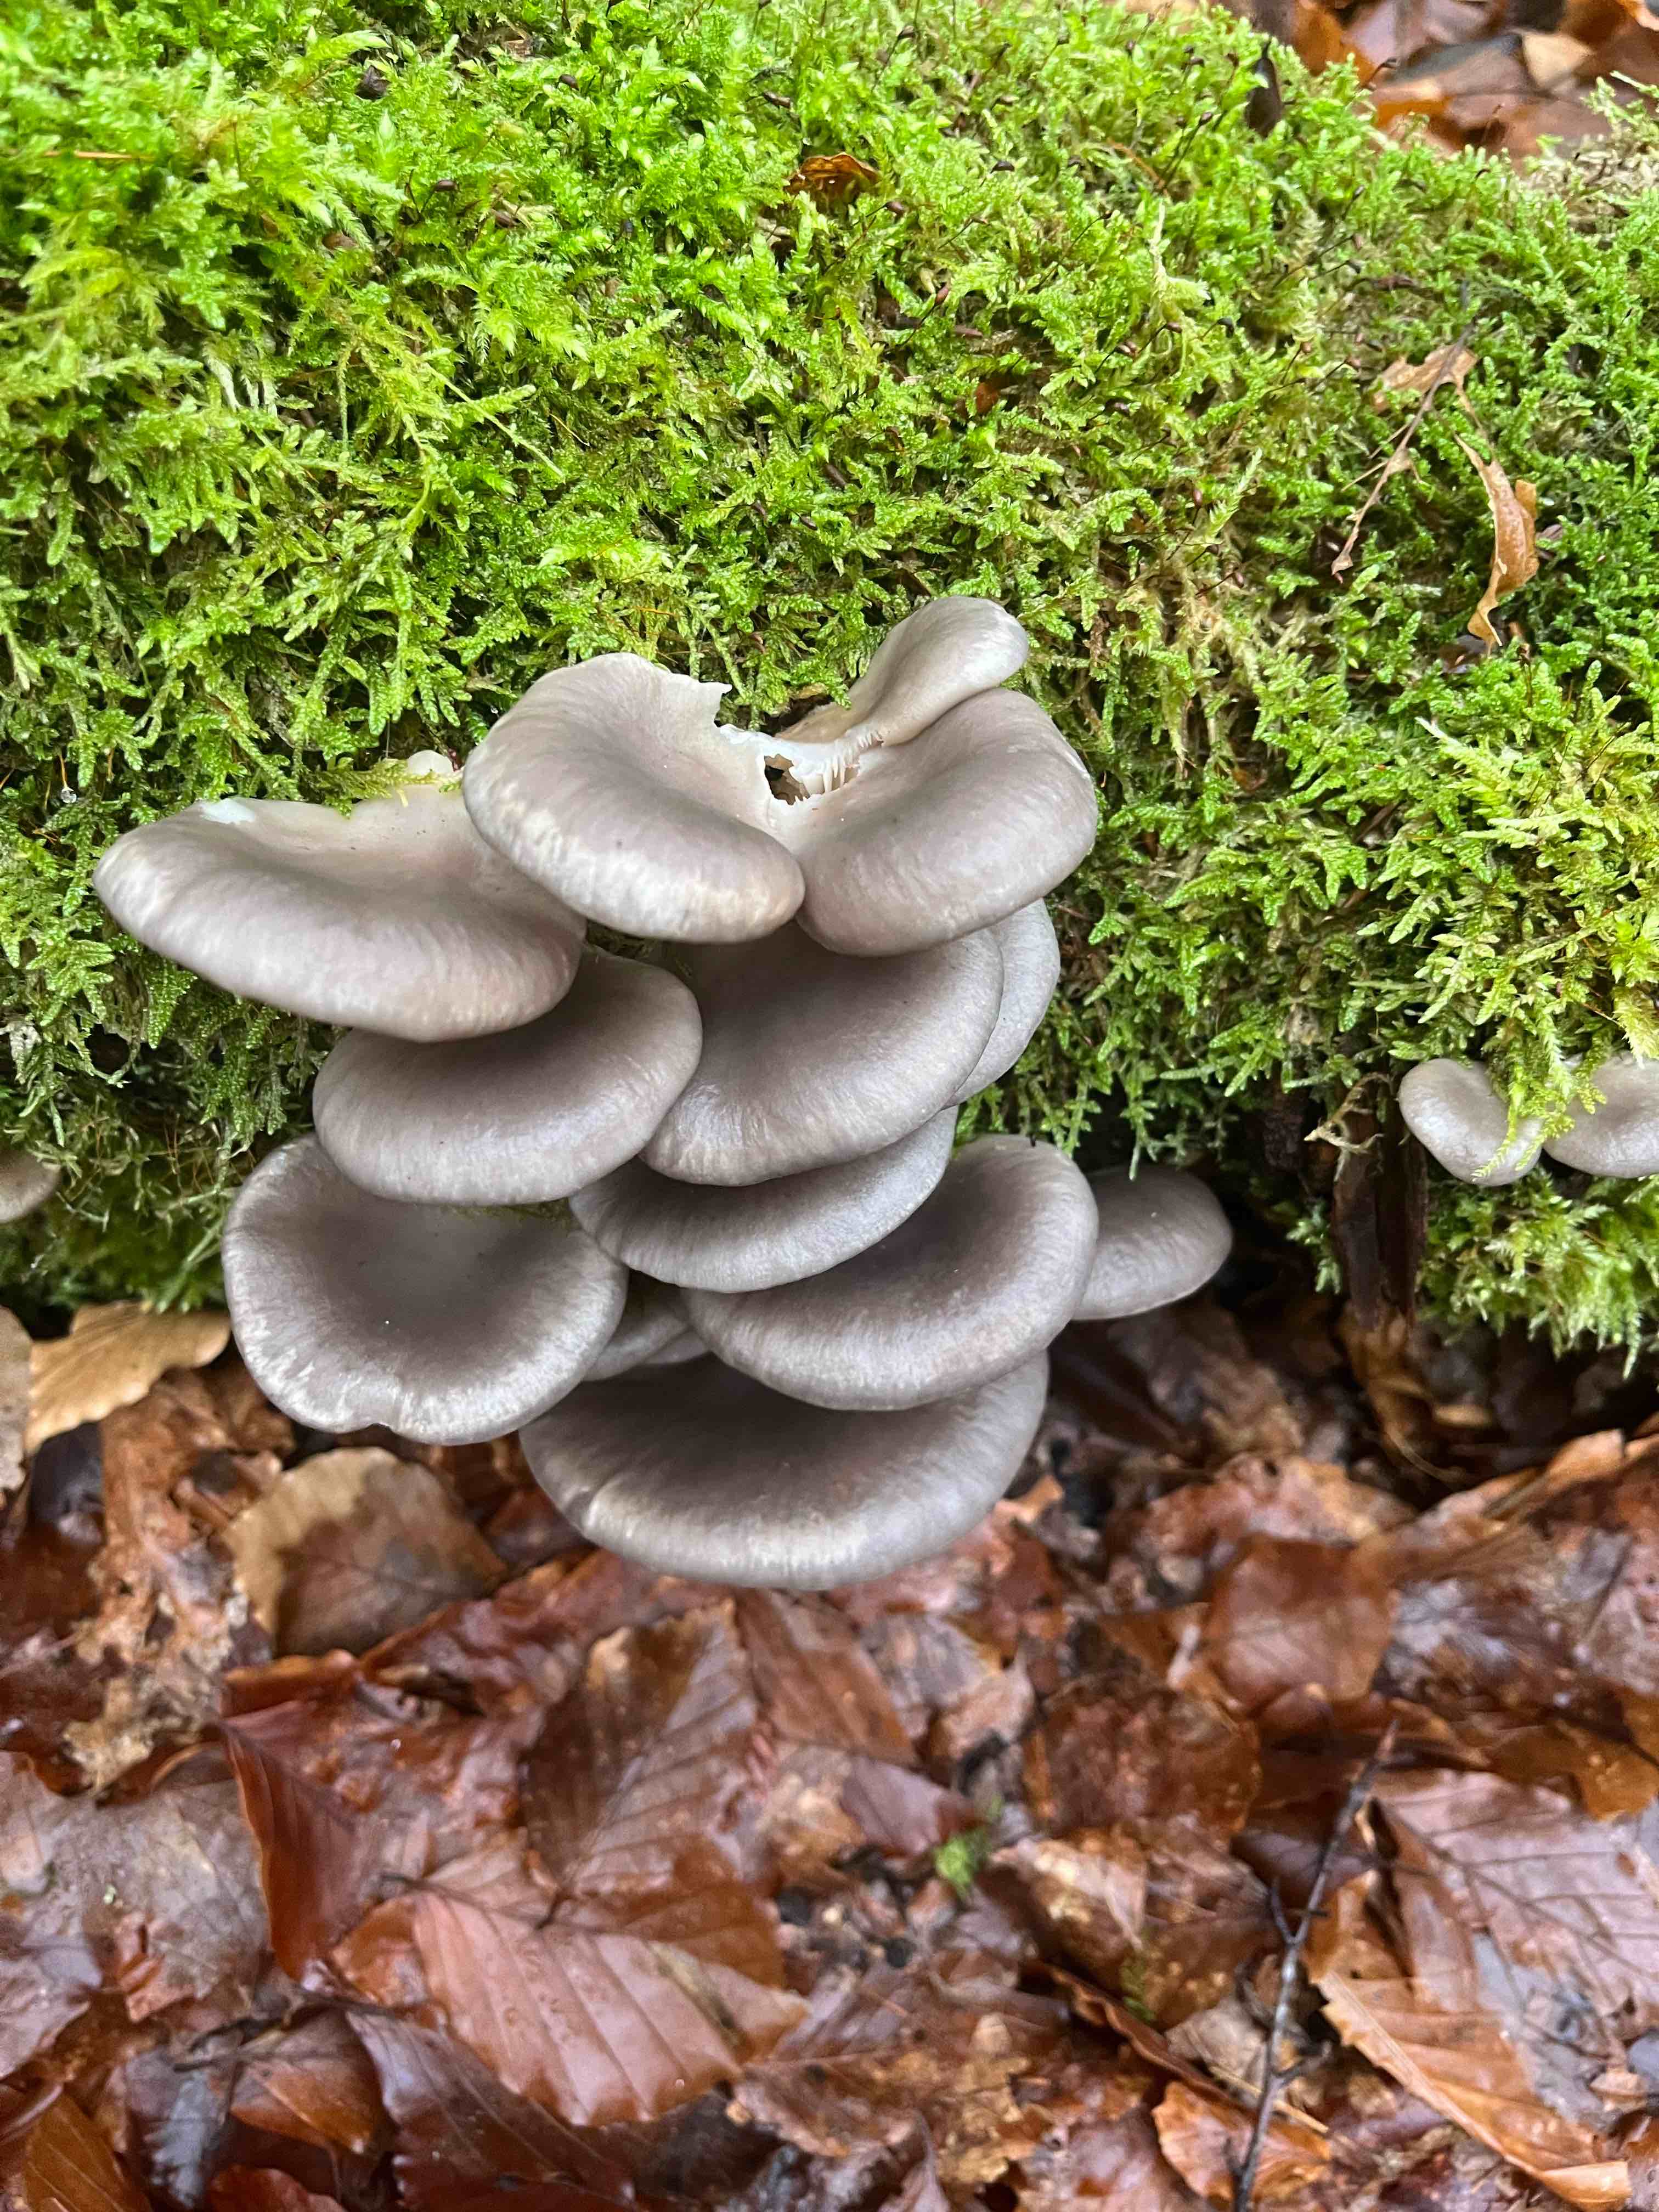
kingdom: Fungi
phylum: Basidiomycota
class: Agaricomycetes
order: Agaricales
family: Pleurotaceae
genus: Pleurotus
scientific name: Pleurotus ostreatus
